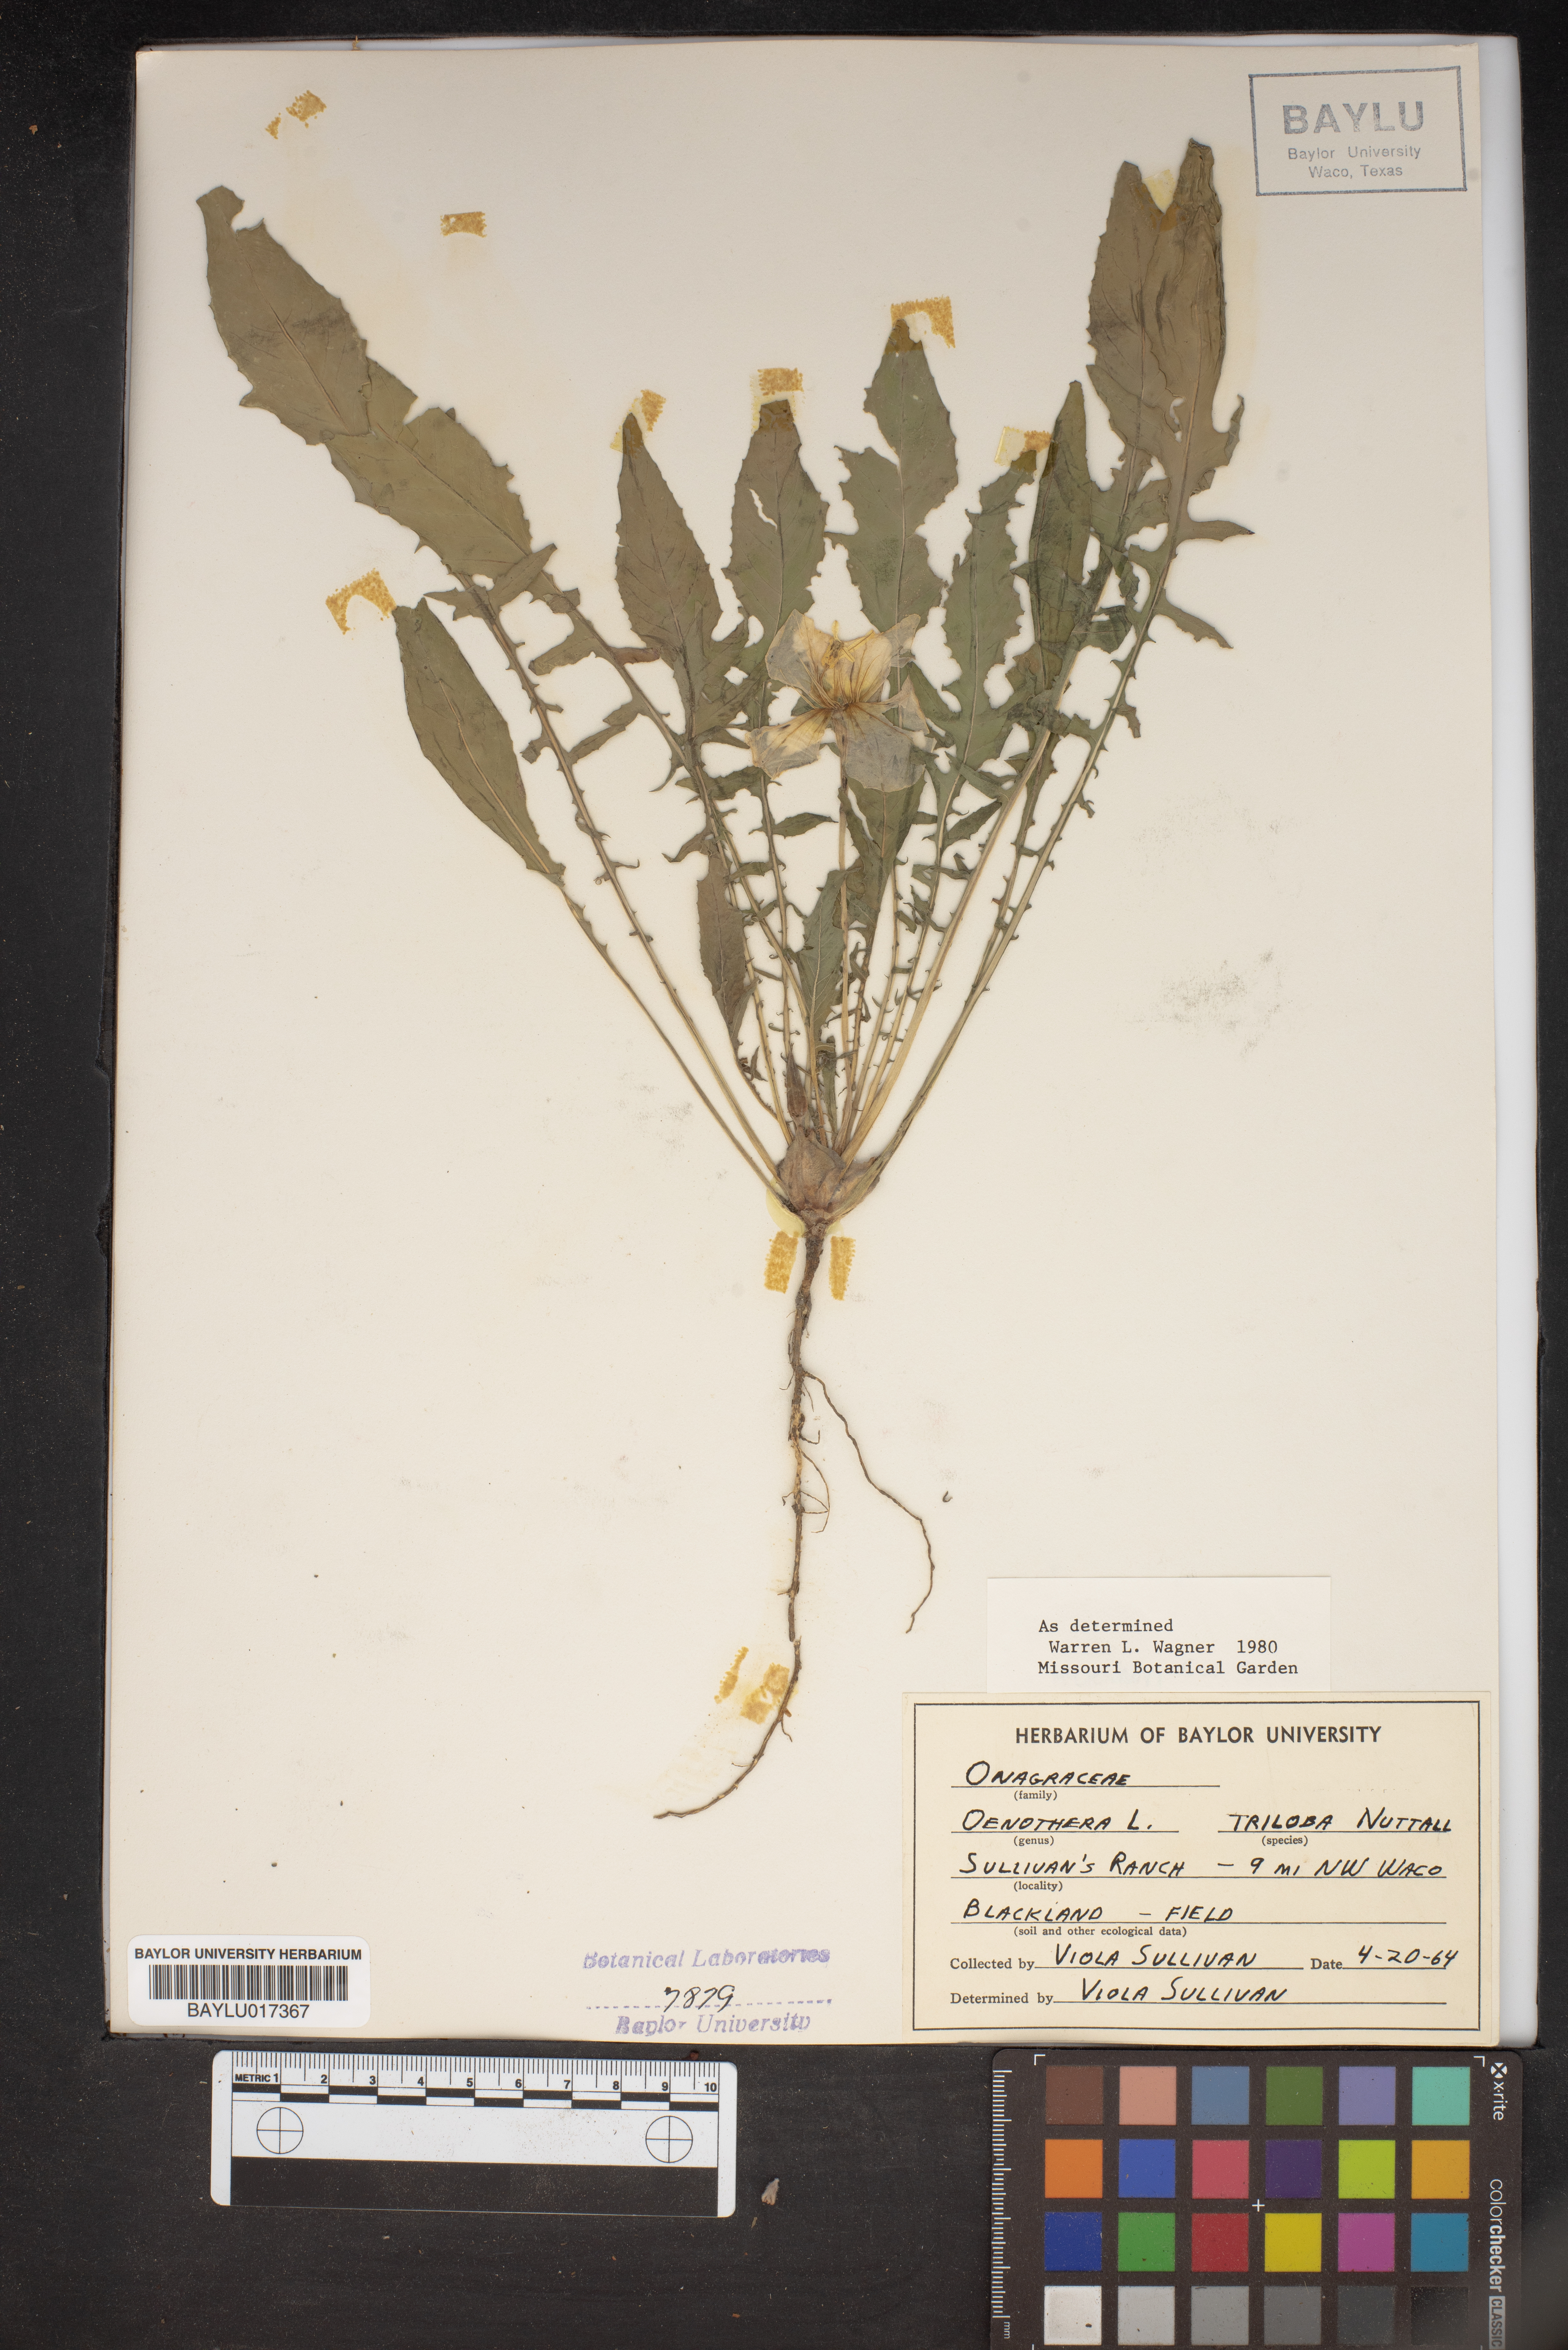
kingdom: Plantae
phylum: Tracheophyta
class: Magnoliopsida
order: Myrtales
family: Onagraceae
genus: Oenothera
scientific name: Oenothera triloba
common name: Sessile evening-primrose
